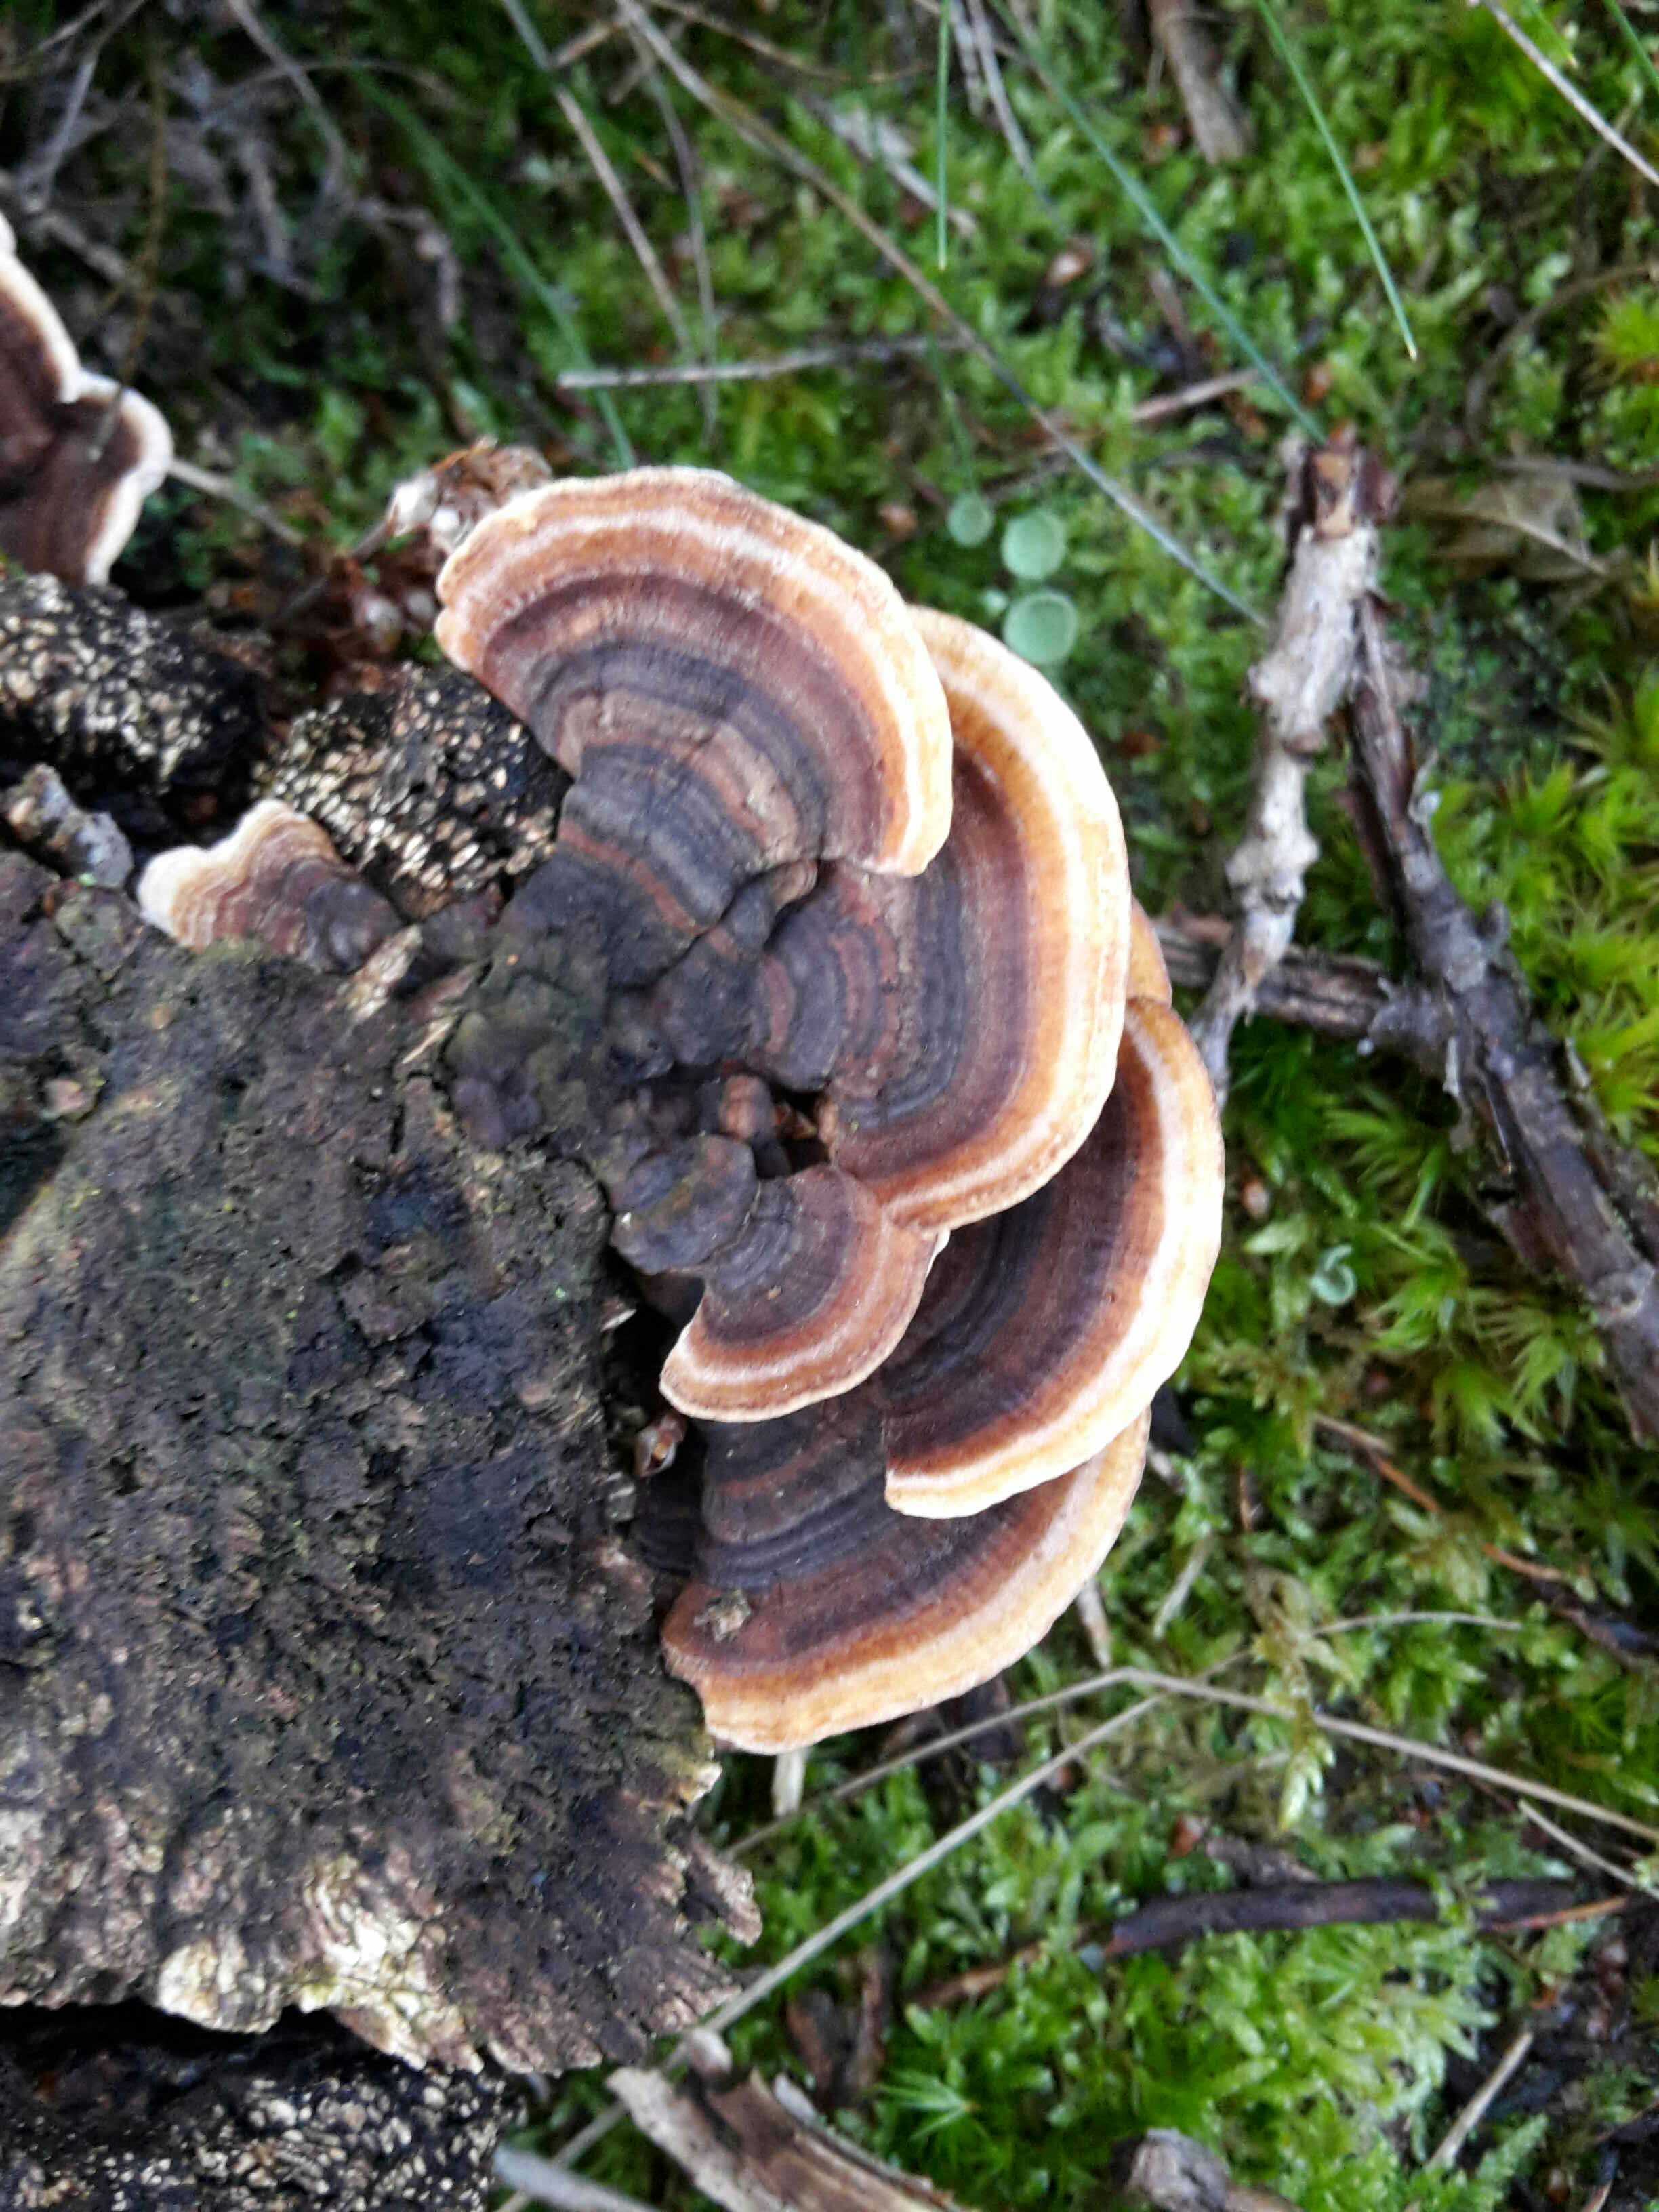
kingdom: Fungi
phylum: Basidiomycota
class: Agaricomycetes
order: Polyporales
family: Polyporaceae
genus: Trametes
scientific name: Trametes versicolor
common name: broget læderporesvamp
